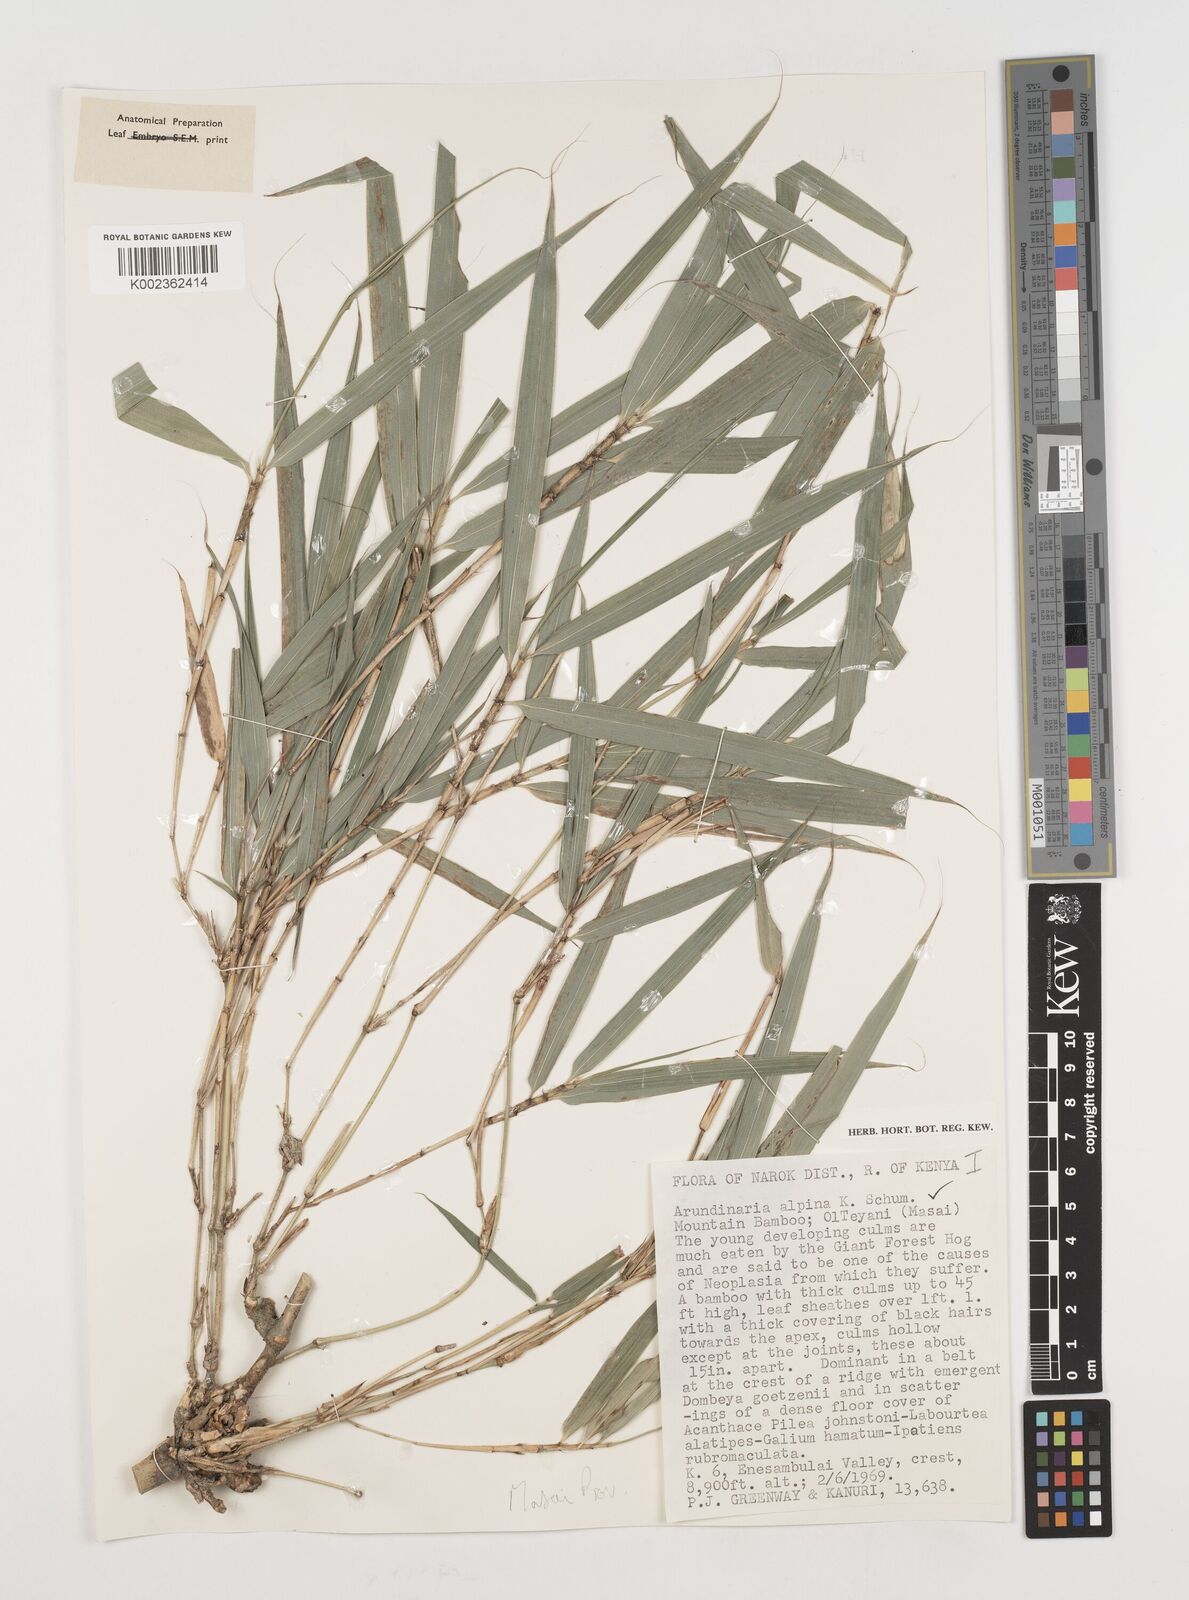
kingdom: Plantae
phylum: Tracheophyta
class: Liliopsida
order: Poales
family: Poaceae
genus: Oldeania
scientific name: Oldeania alpina
